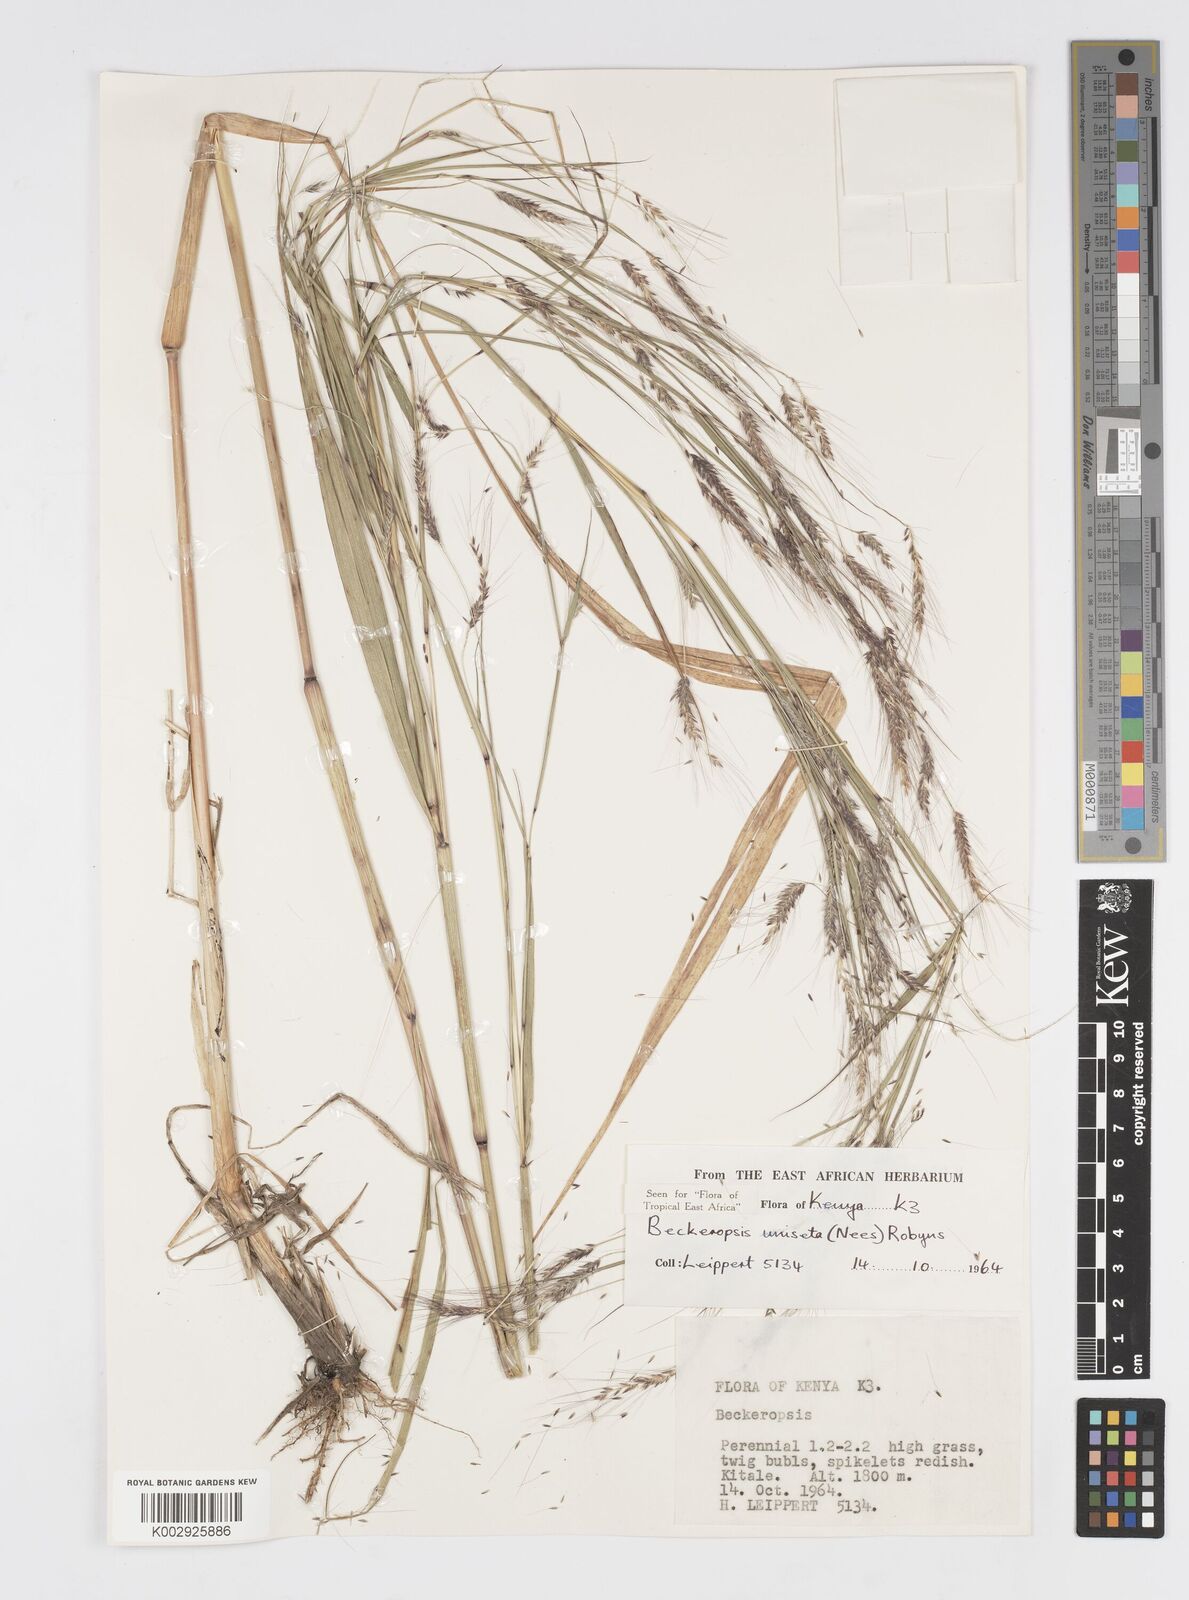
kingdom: Plantae
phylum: Tracheophyta
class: Liliopsida
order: Poales
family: Poaceae
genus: Cenchrus
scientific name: Cenchrus Pennisetum spec
